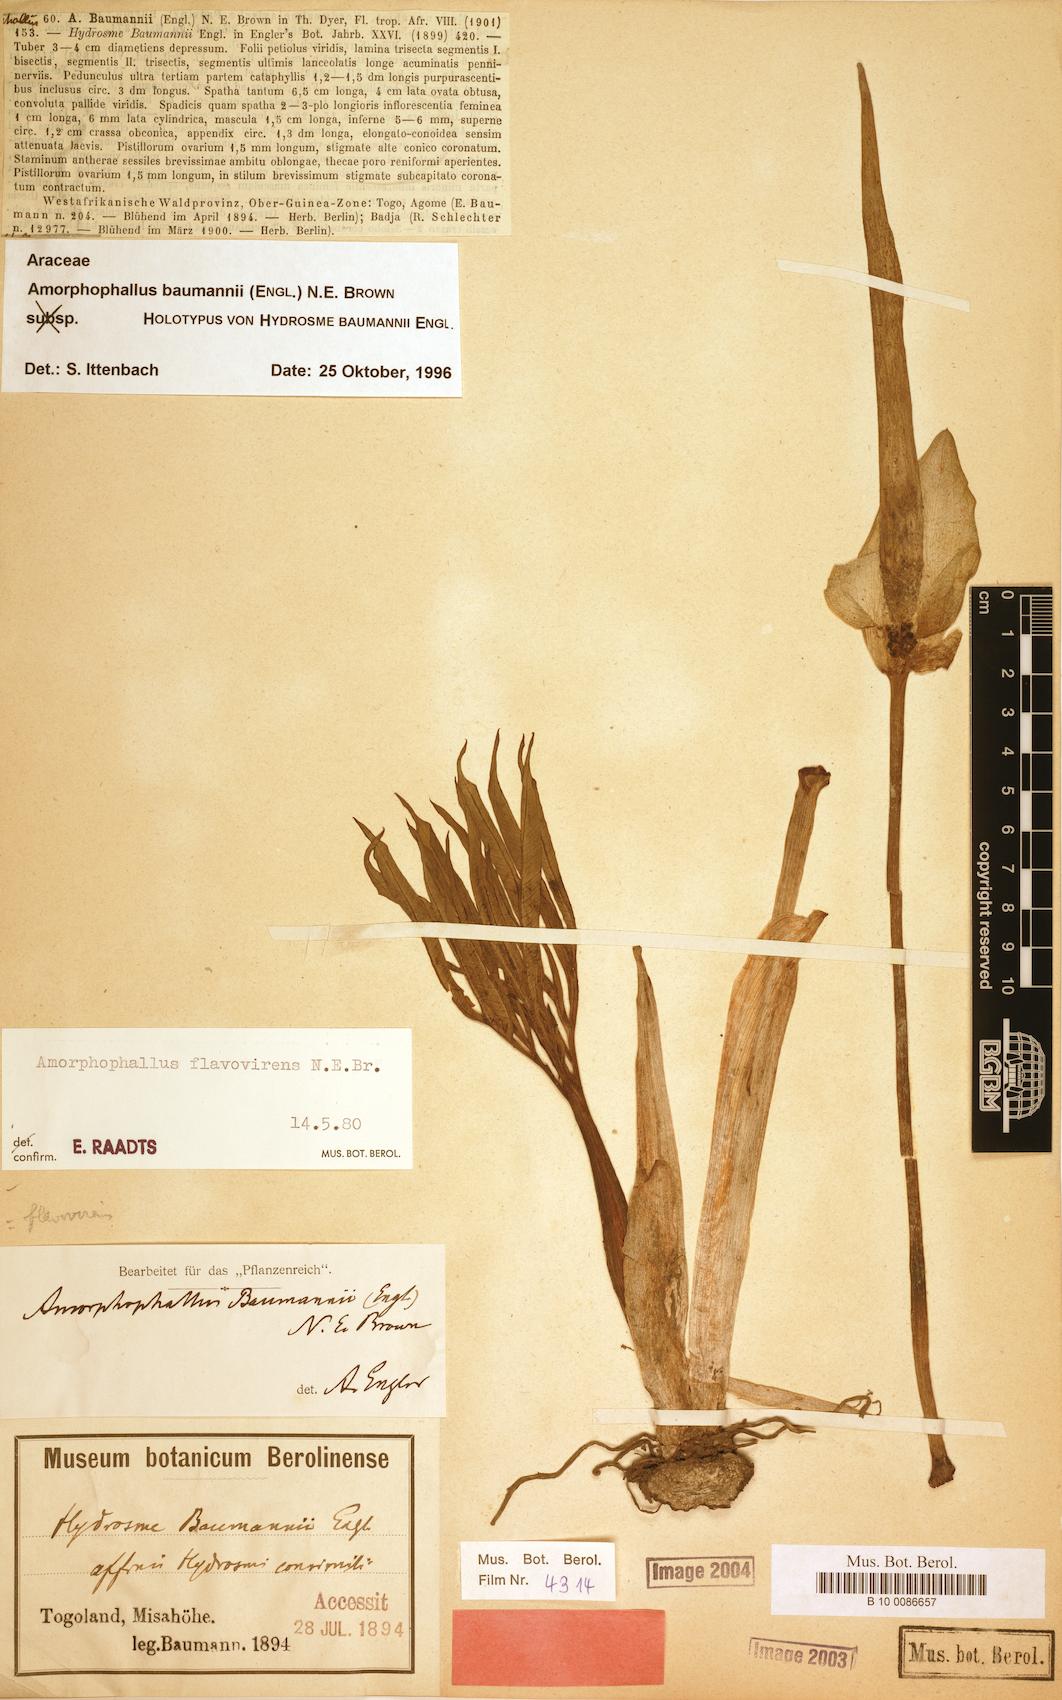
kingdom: Plantae
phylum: Tracheophyta
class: Liliopsida
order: Alismatales
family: Araceae
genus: Amorphophallus
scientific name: Amorphophallus baumannii
